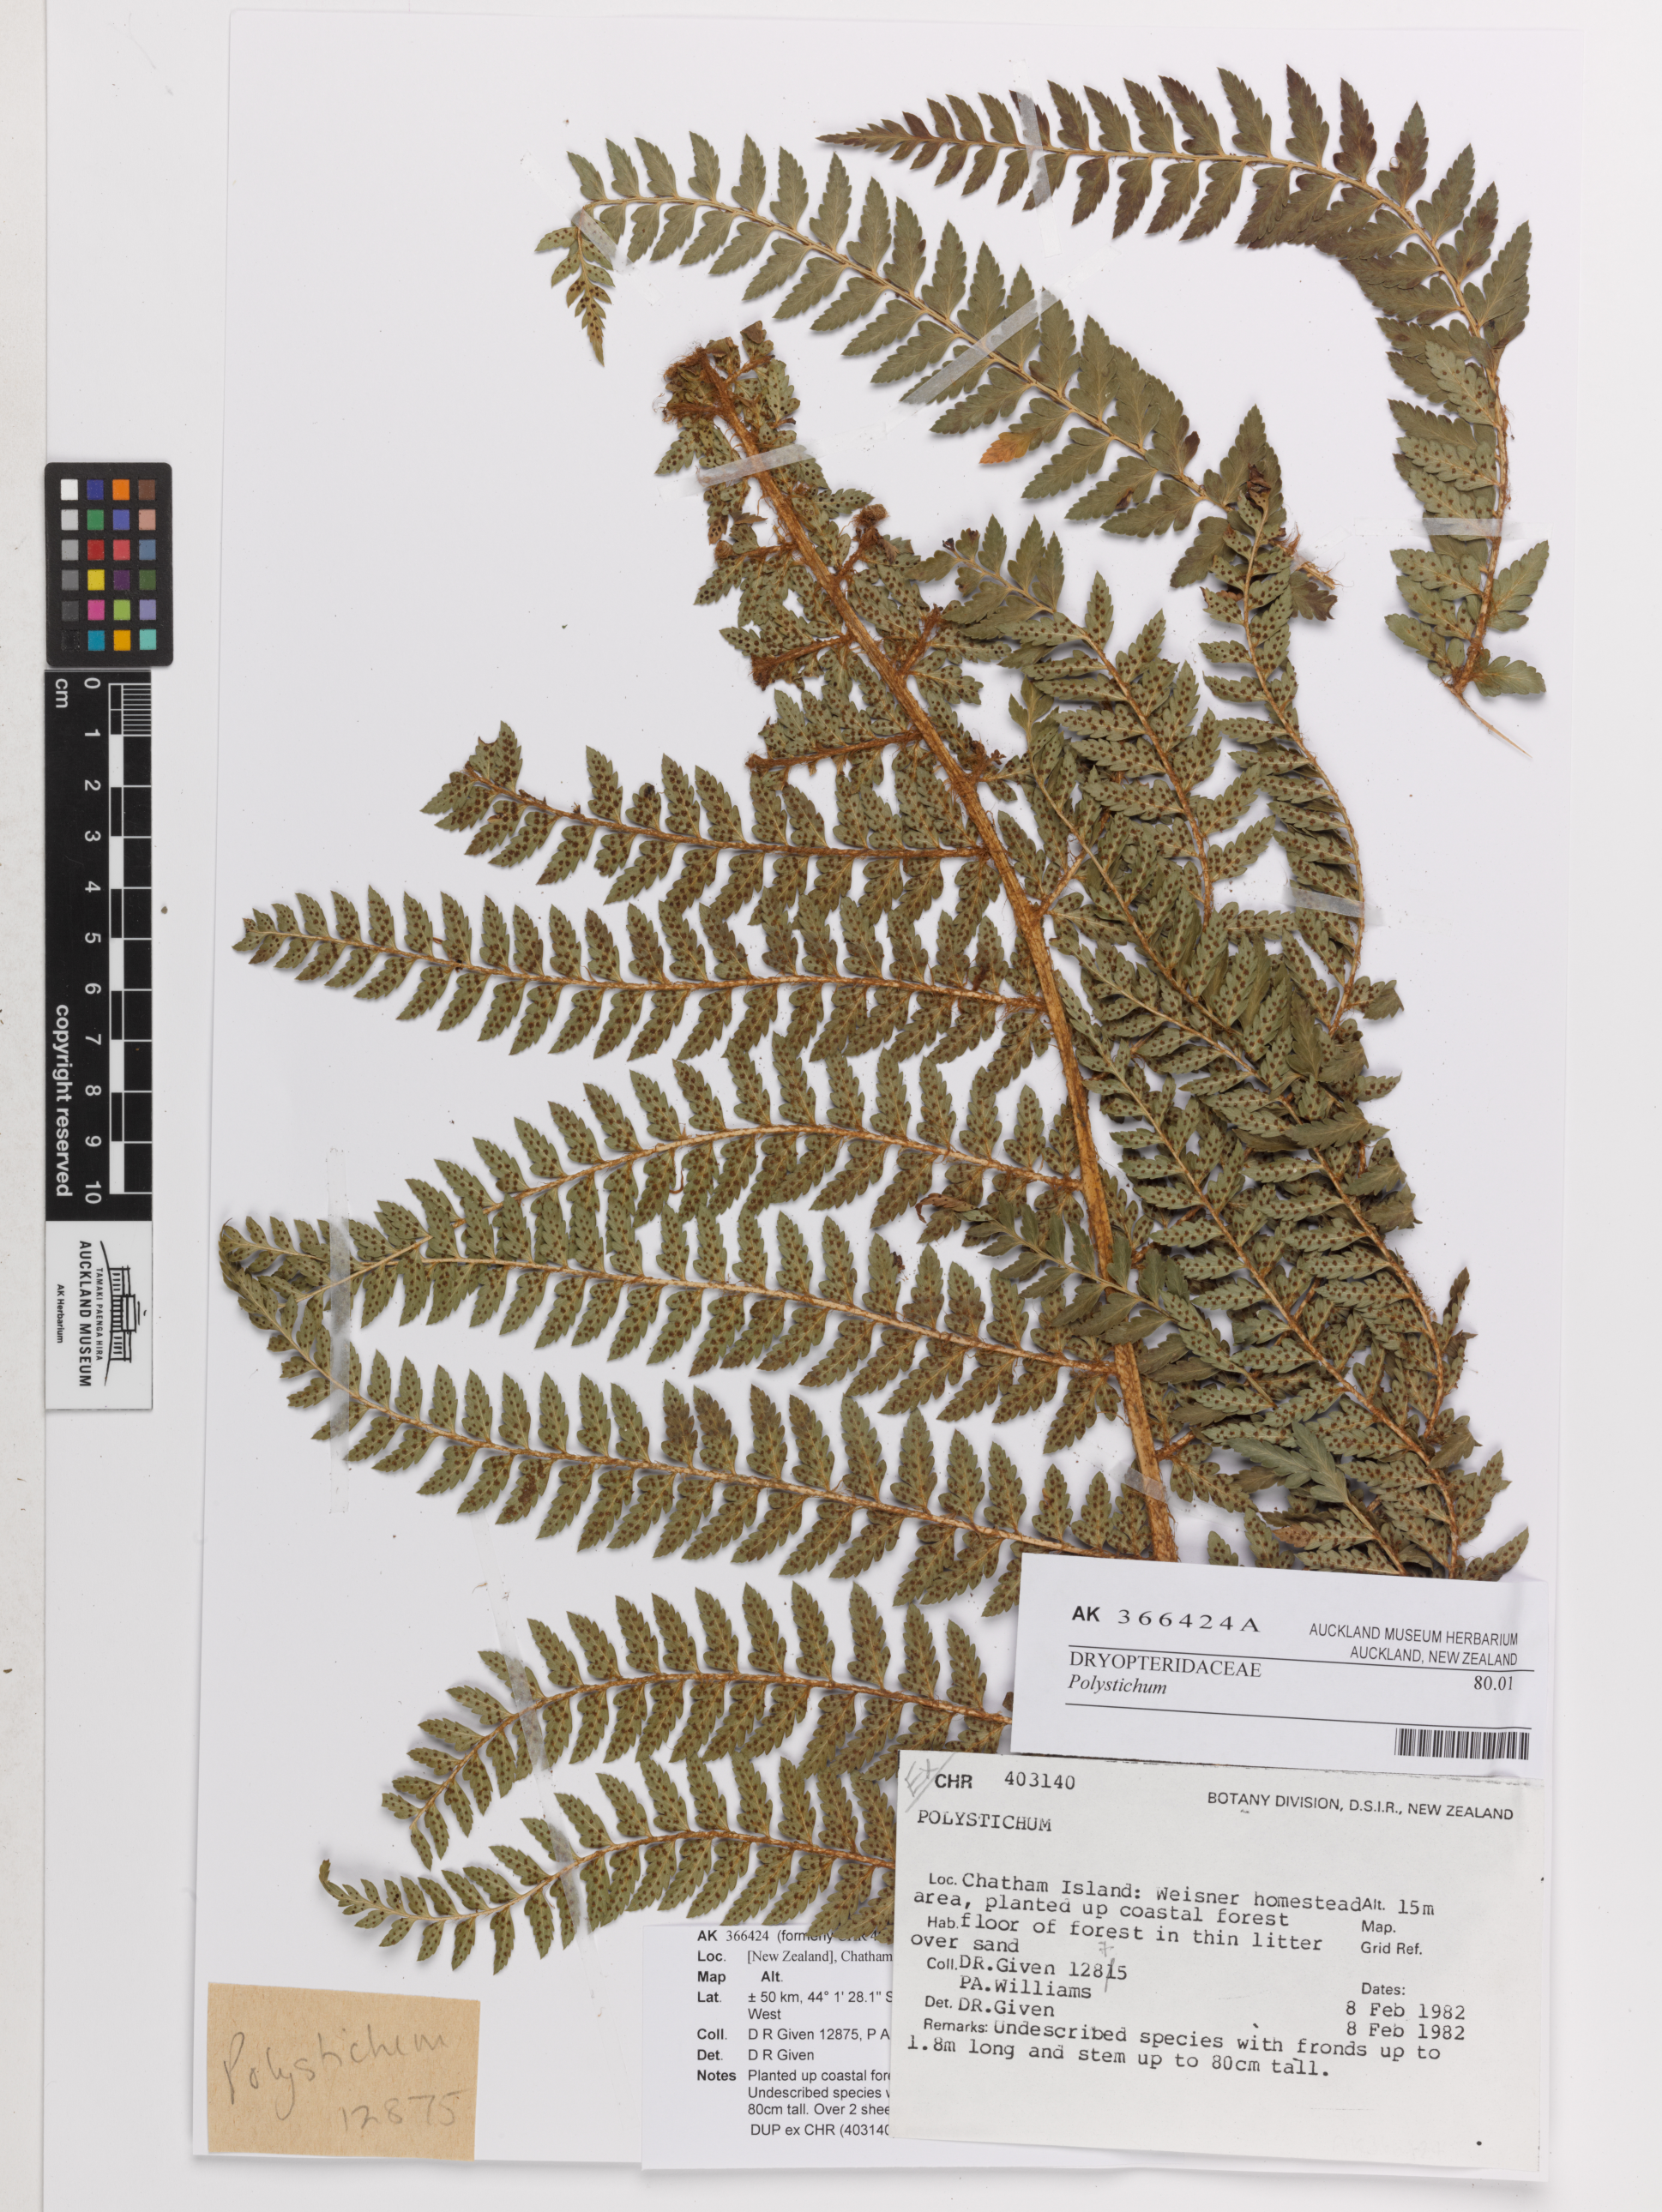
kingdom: Plantae
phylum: Tracheophyta
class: Polypodiopsida
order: Polypodiales
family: Dryopteridaceae
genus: Polystichum
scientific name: Polystichum
